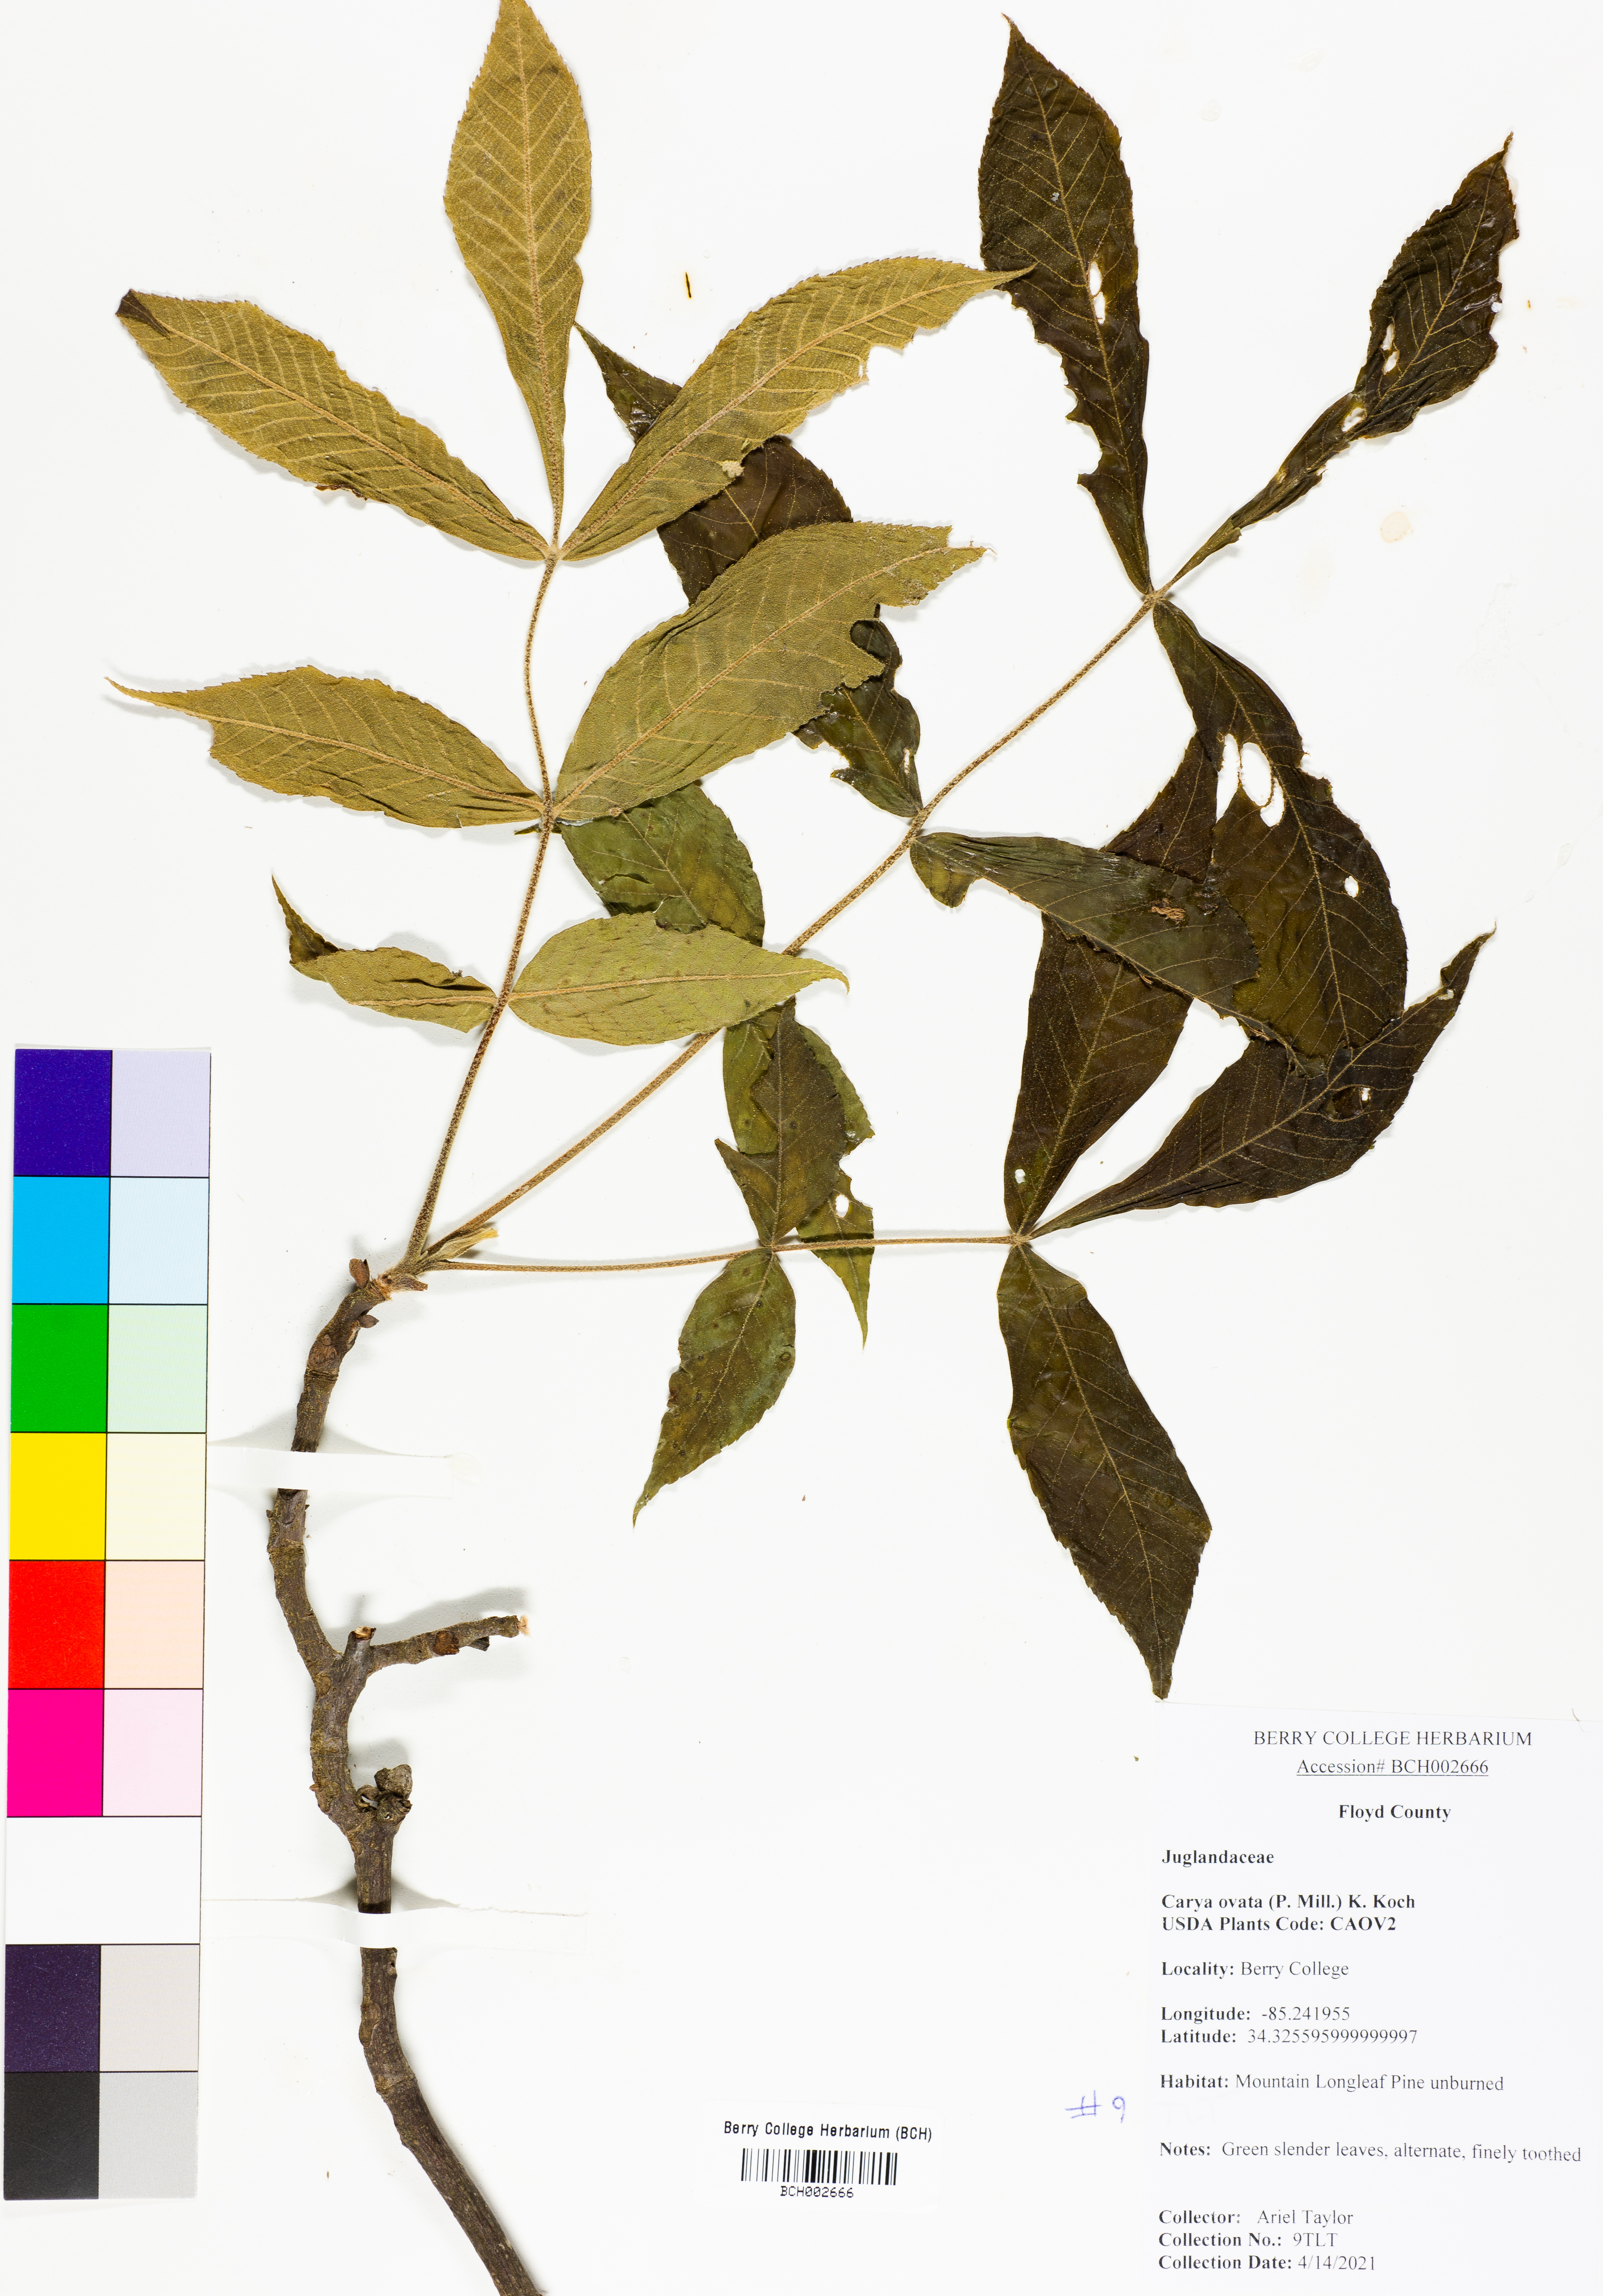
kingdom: Plantae
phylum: Tracheophyta
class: Magnoliopsida
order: Fagales
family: Juglandaceae
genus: Carya
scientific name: Carya ovata
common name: Shagbark hickory
